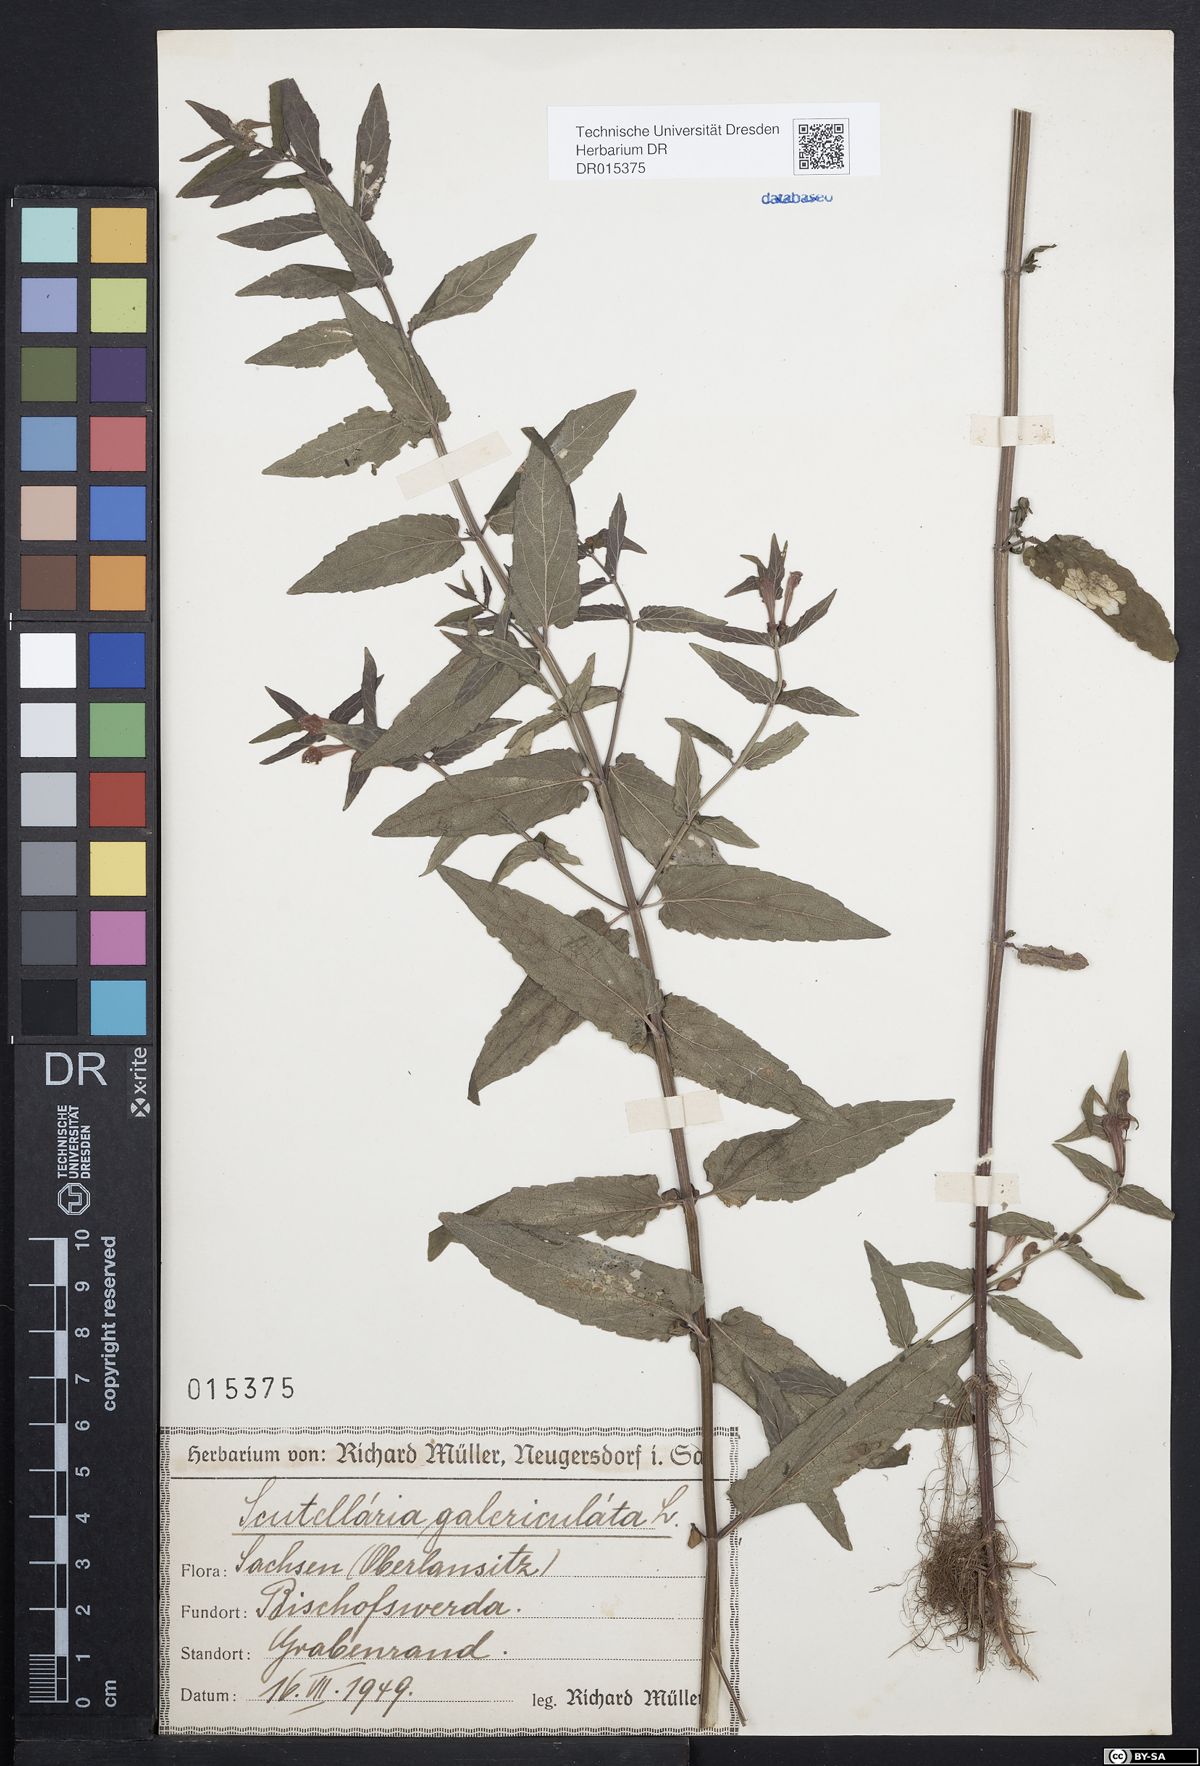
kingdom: Plantae
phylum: Tracheophyta
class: Magnoliopsida
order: Lamiales
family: Lamiaceae
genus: Scutellaria
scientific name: Scutellaria galericulata
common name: Skullcap
